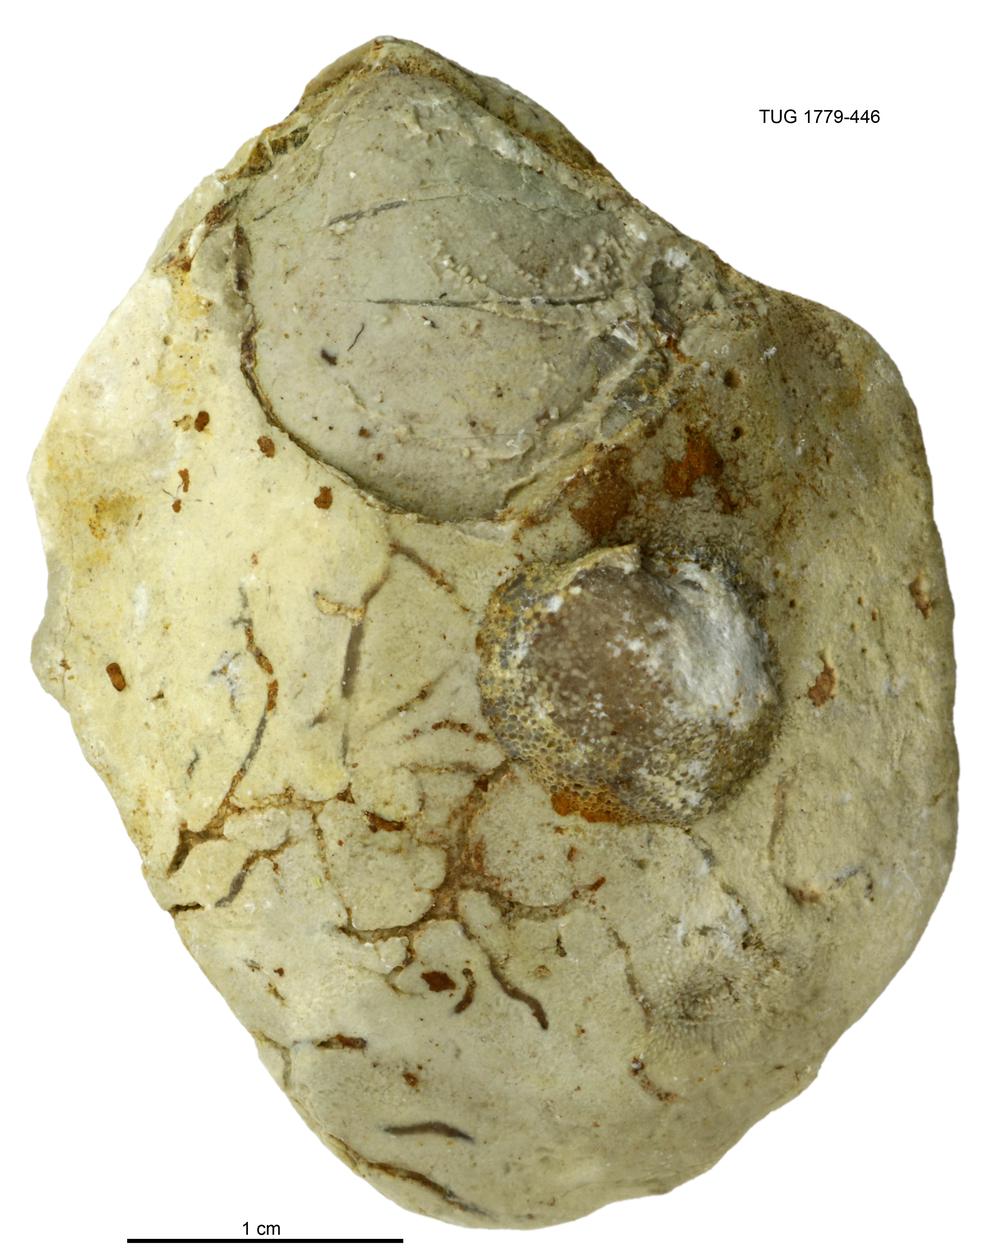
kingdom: Animalia
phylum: Mollusca
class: Bivalvia
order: Modiomorphida
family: Modiomorphidae
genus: Modiolopsis
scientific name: Modiolopsis
